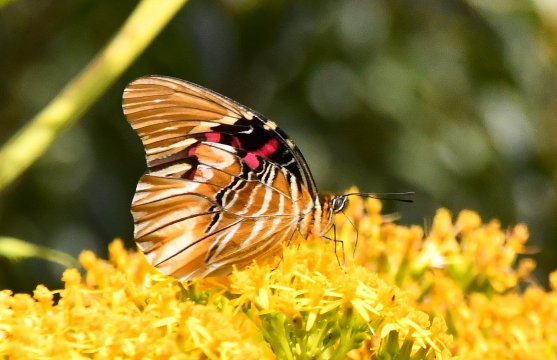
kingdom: Animalia
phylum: Arthropoda
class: Insecta
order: Lepidoptera
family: Nymphalidae
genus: Anetia
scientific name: Anetia thirza
